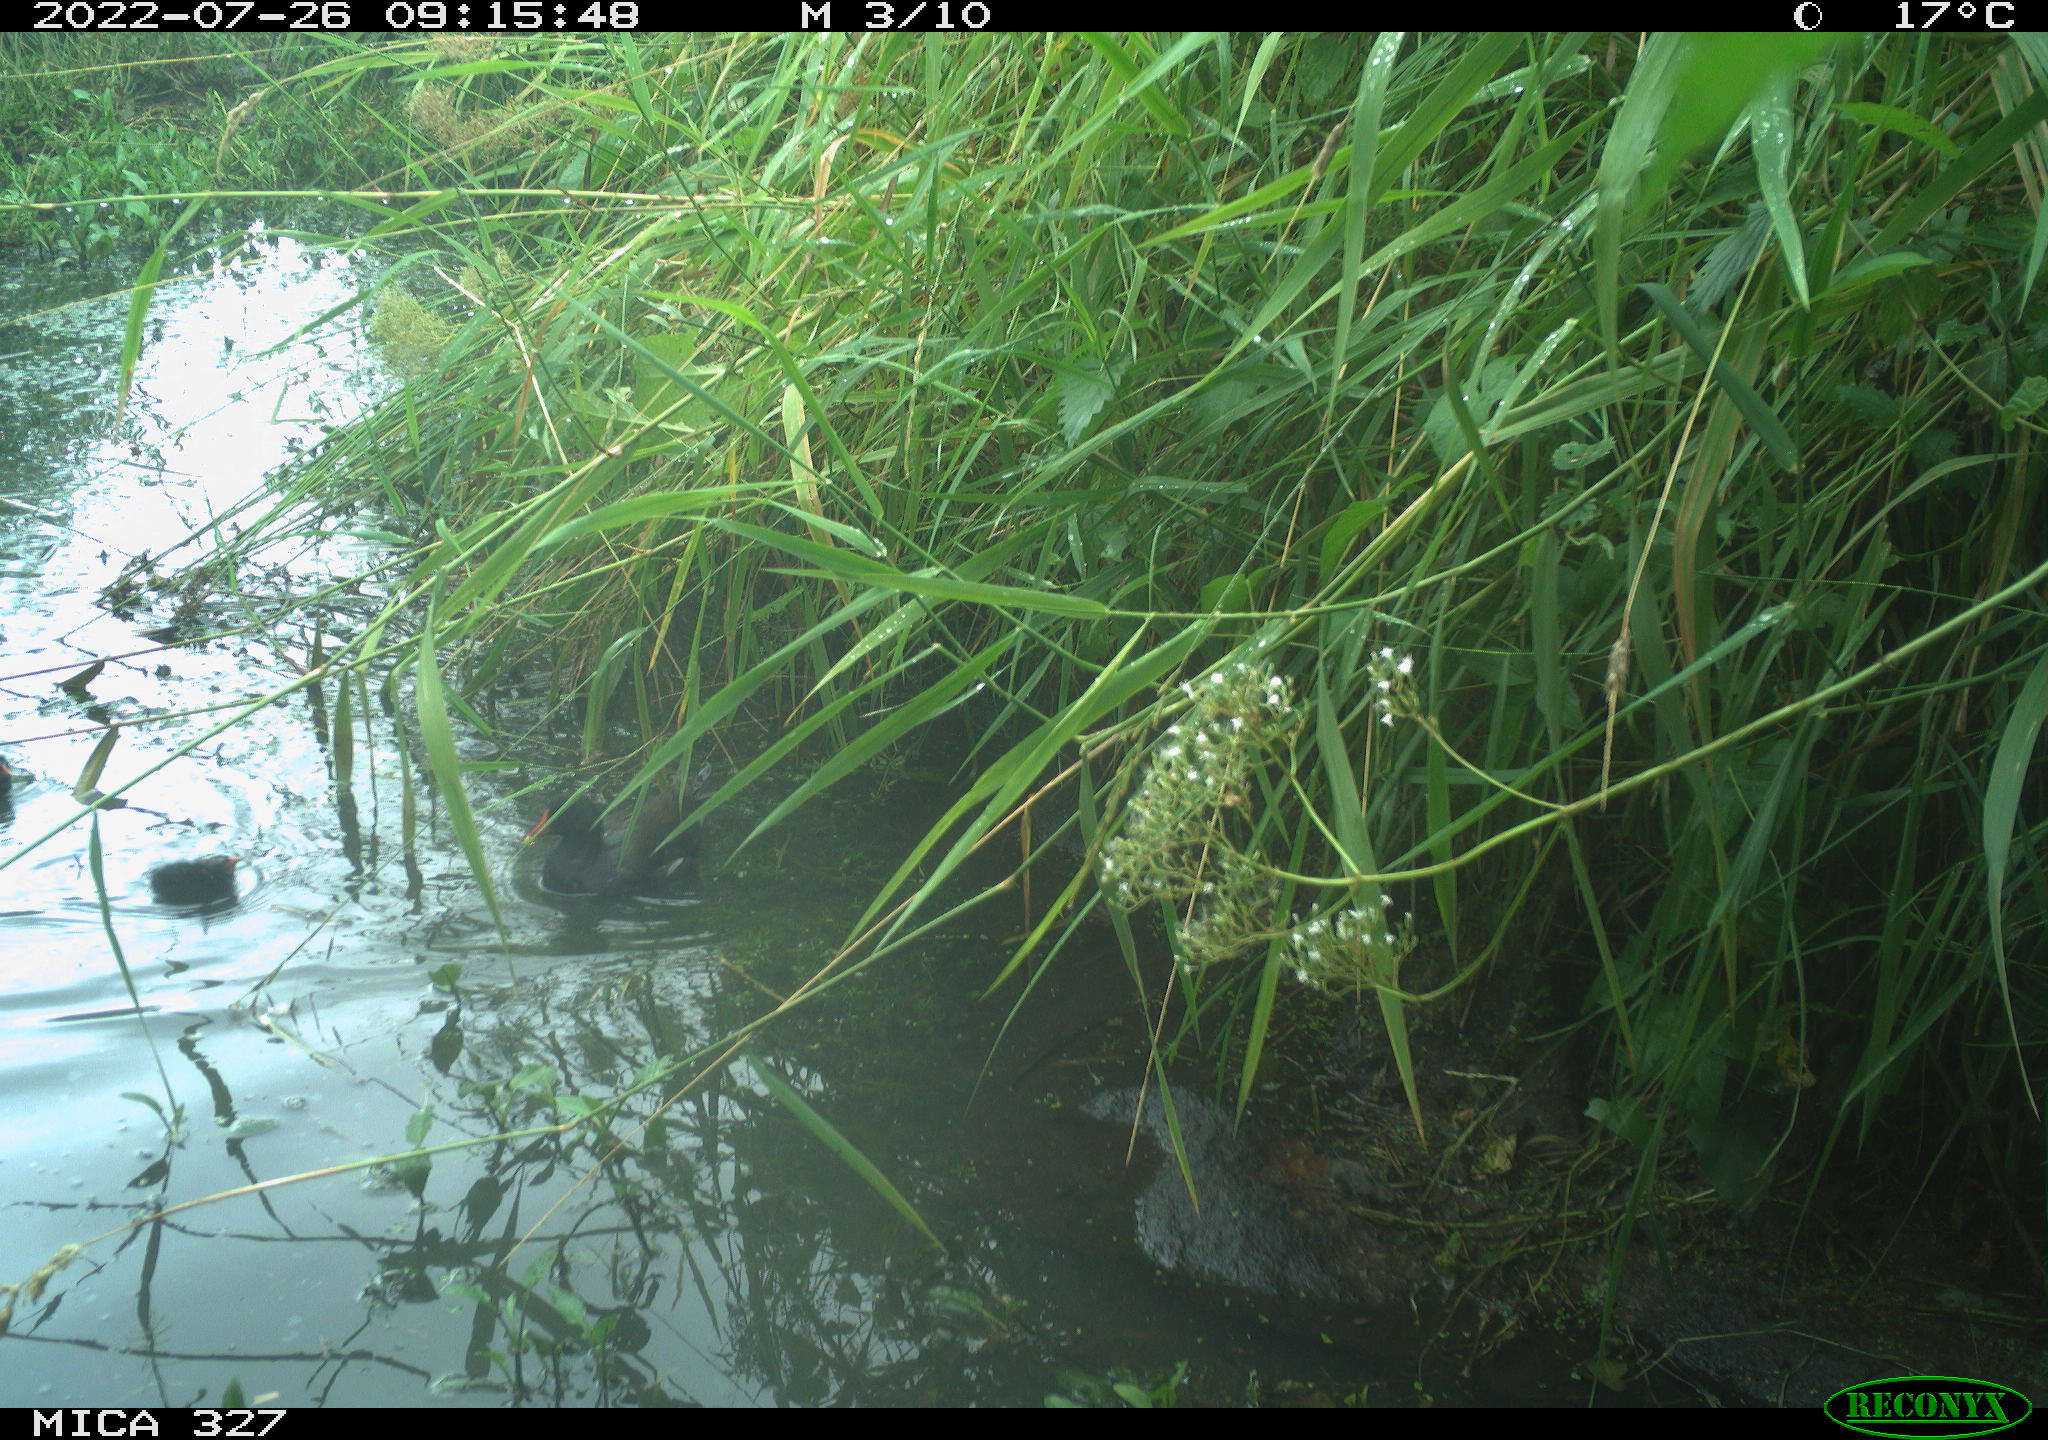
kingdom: Animalia
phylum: Chordata
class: Aves
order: Gruiformes
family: Rallidae
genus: Gallinula
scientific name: Gallinula chloropus
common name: Common moorhen
